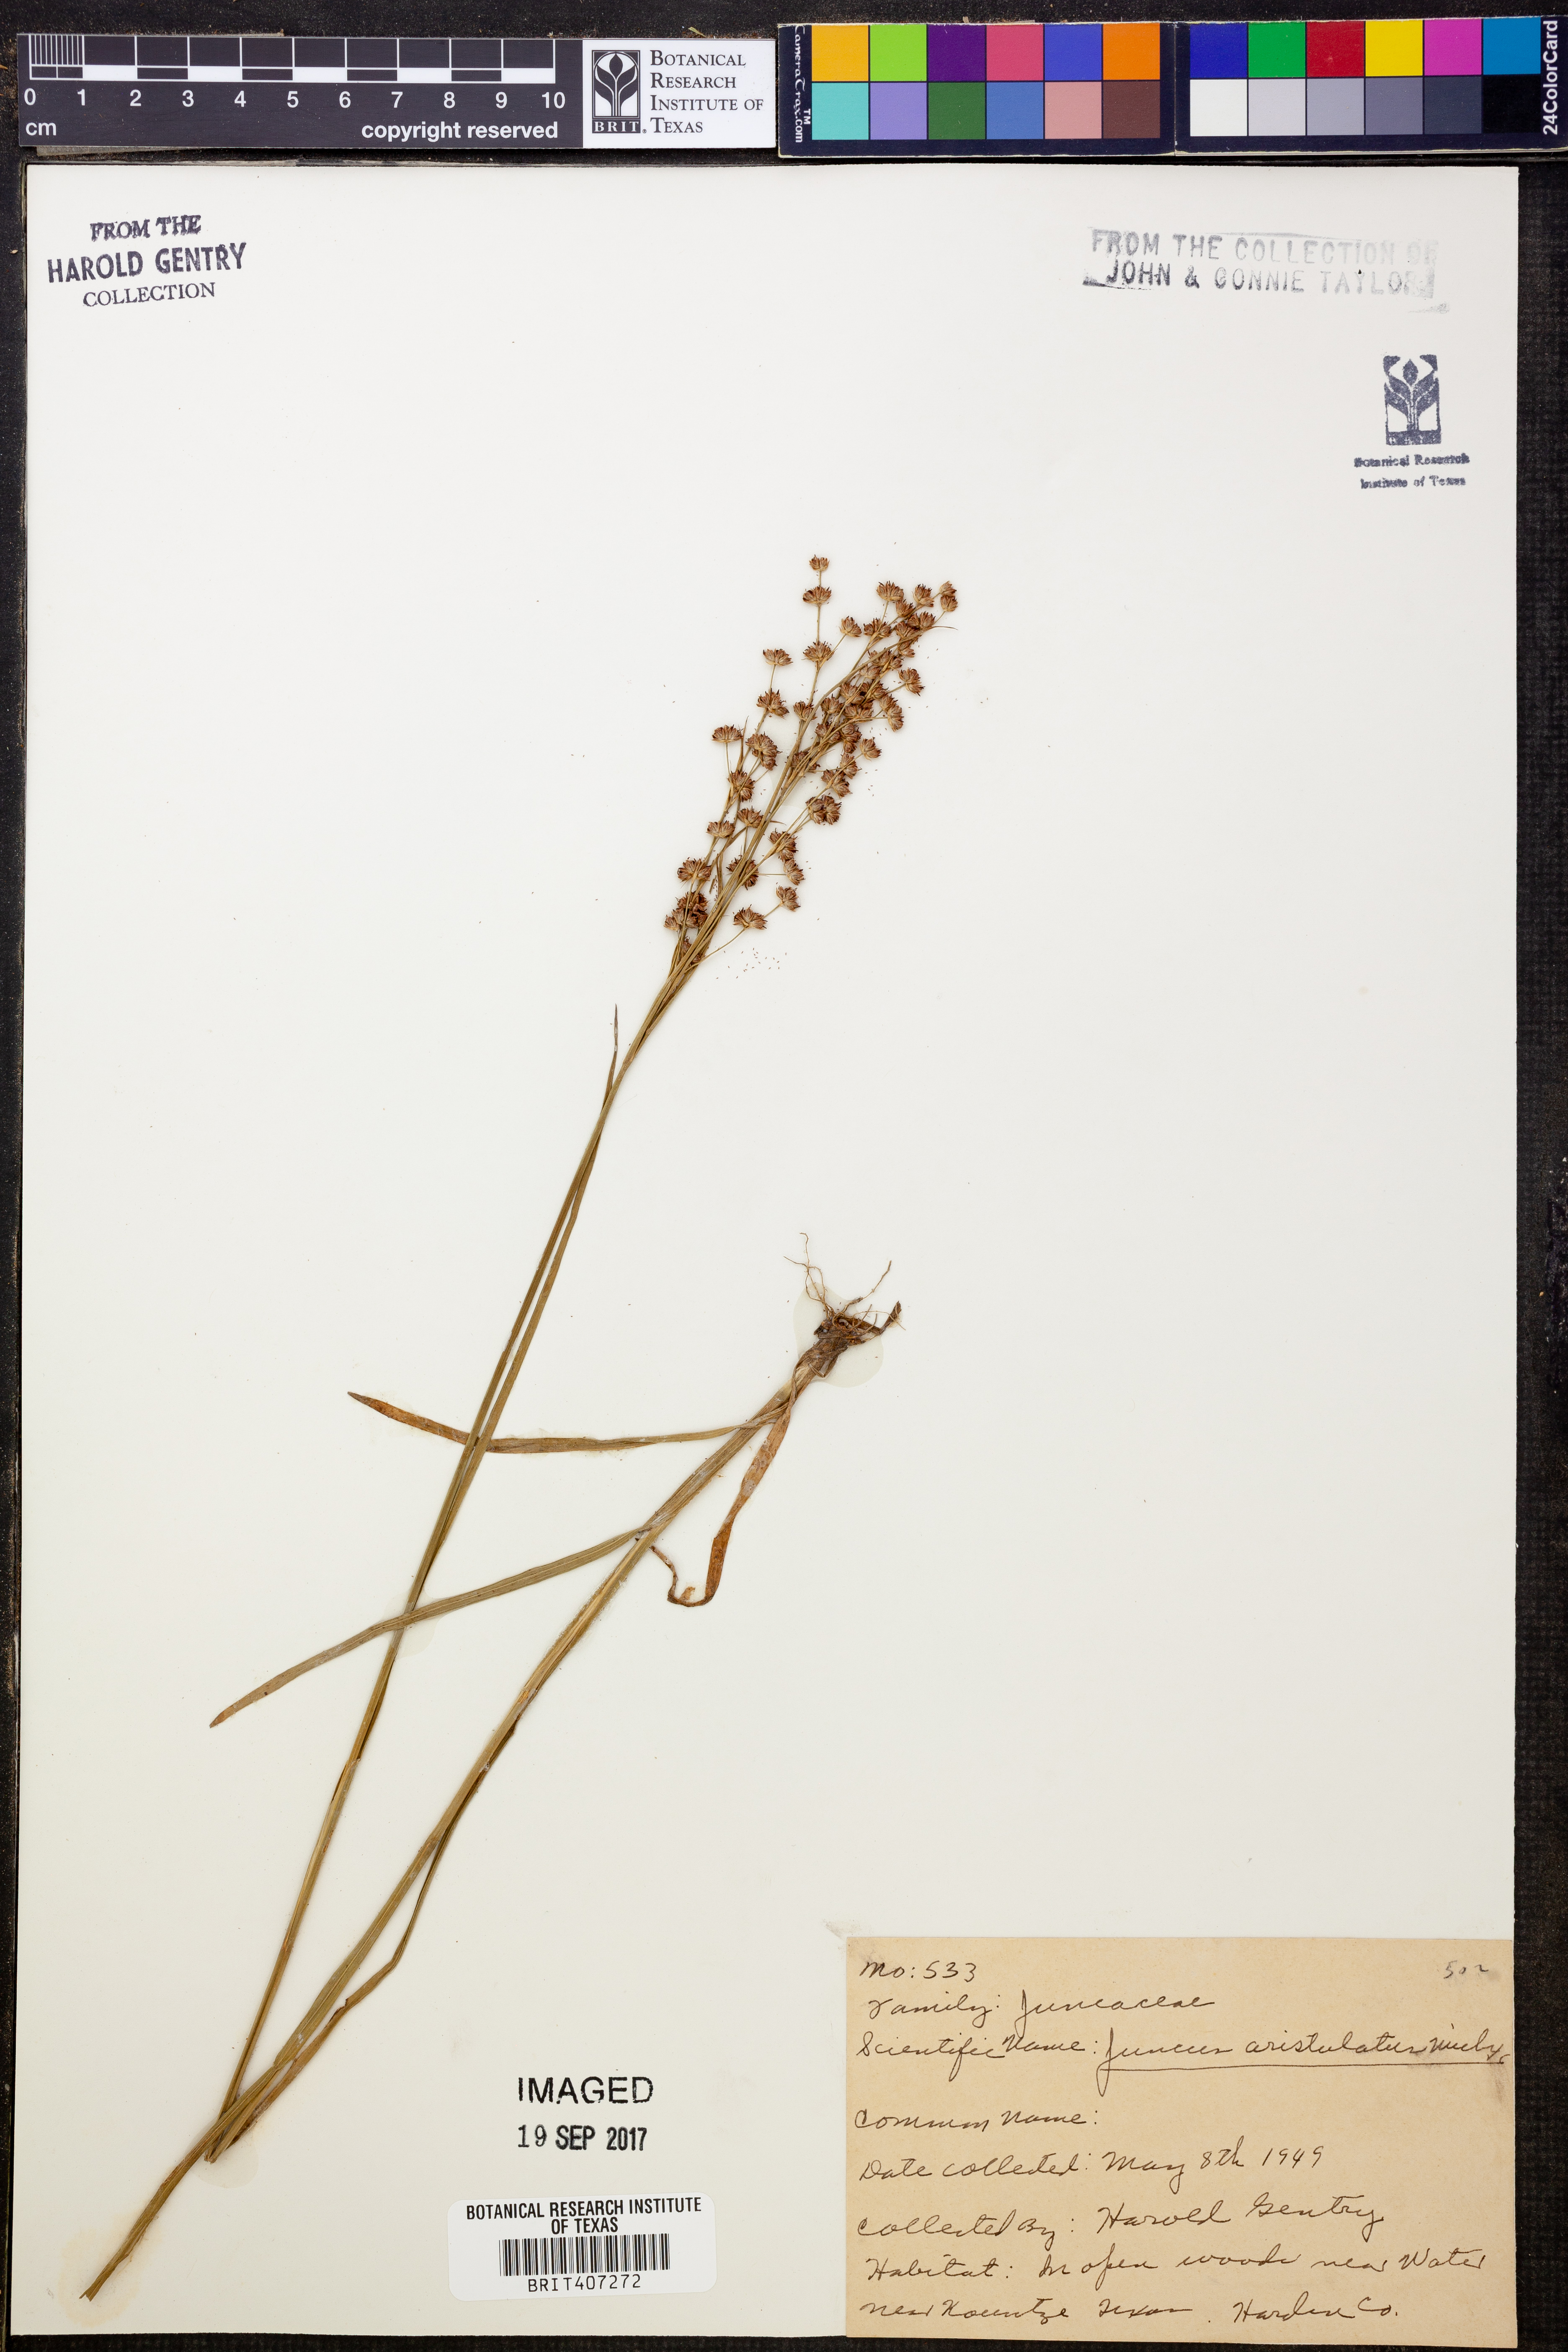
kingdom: Plantae
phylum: Tracheophyta
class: Liliopsida
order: Poales
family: Juncaceae
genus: Juncus
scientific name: Juncus marginatus
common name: Grass-leaf rush
